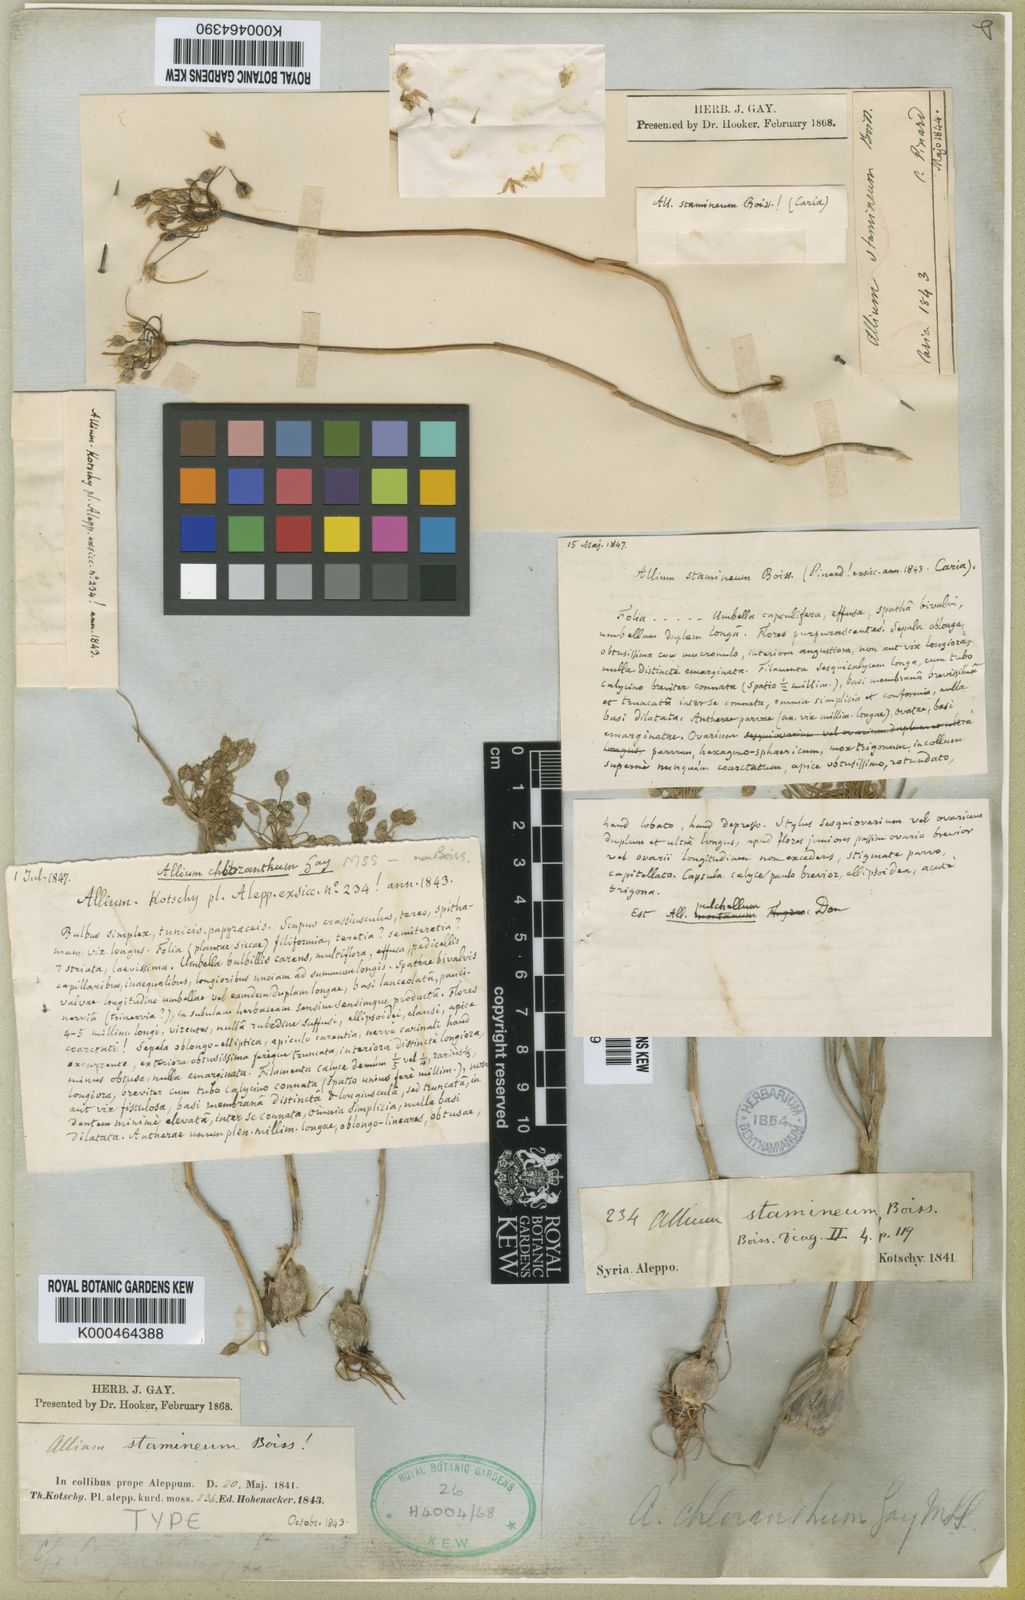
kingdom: Plantae
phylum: Tracheophyta
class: Liliopsida
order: Asparagales
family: Amaryllidaceae
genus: Allium
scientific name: Allium stamineum
